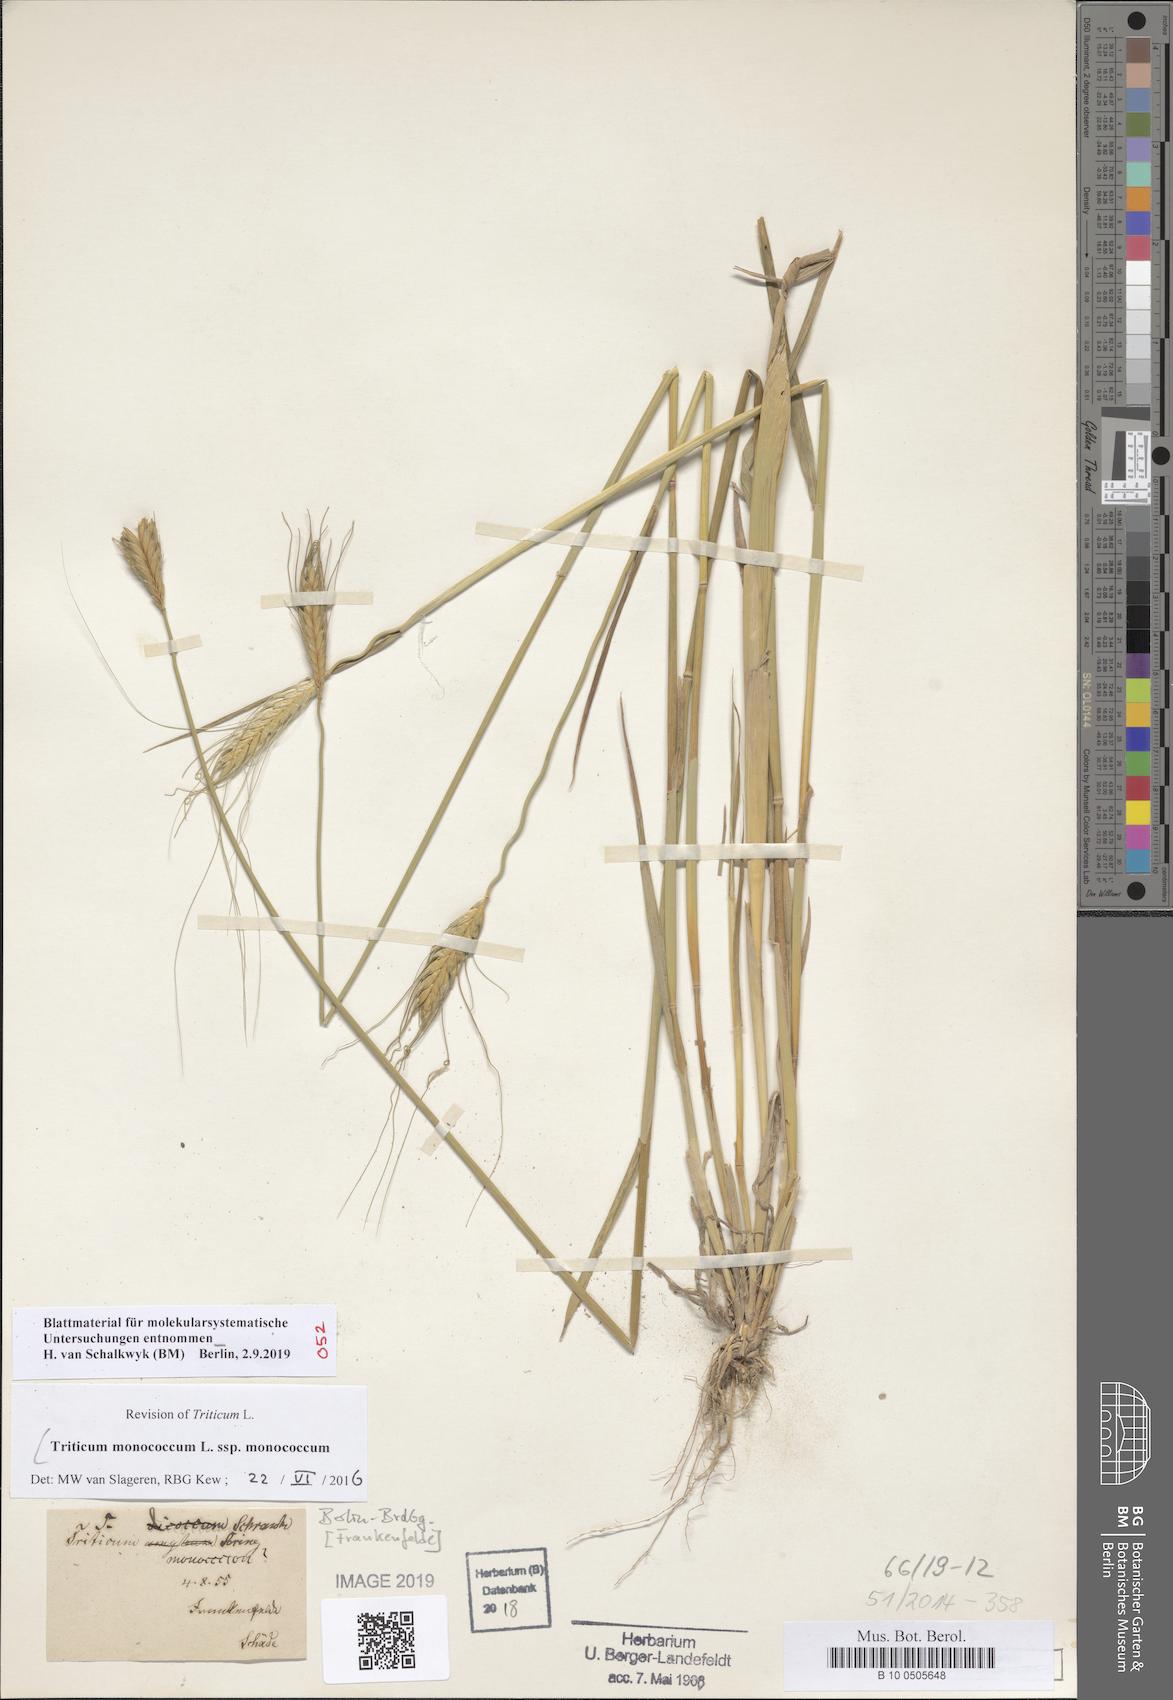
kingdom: Plantae
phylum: Tracheophyta
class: Liliopsida
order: Poales
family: Poaceae
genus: Triticum
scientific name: Triticum monococcum
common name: Einkorn
